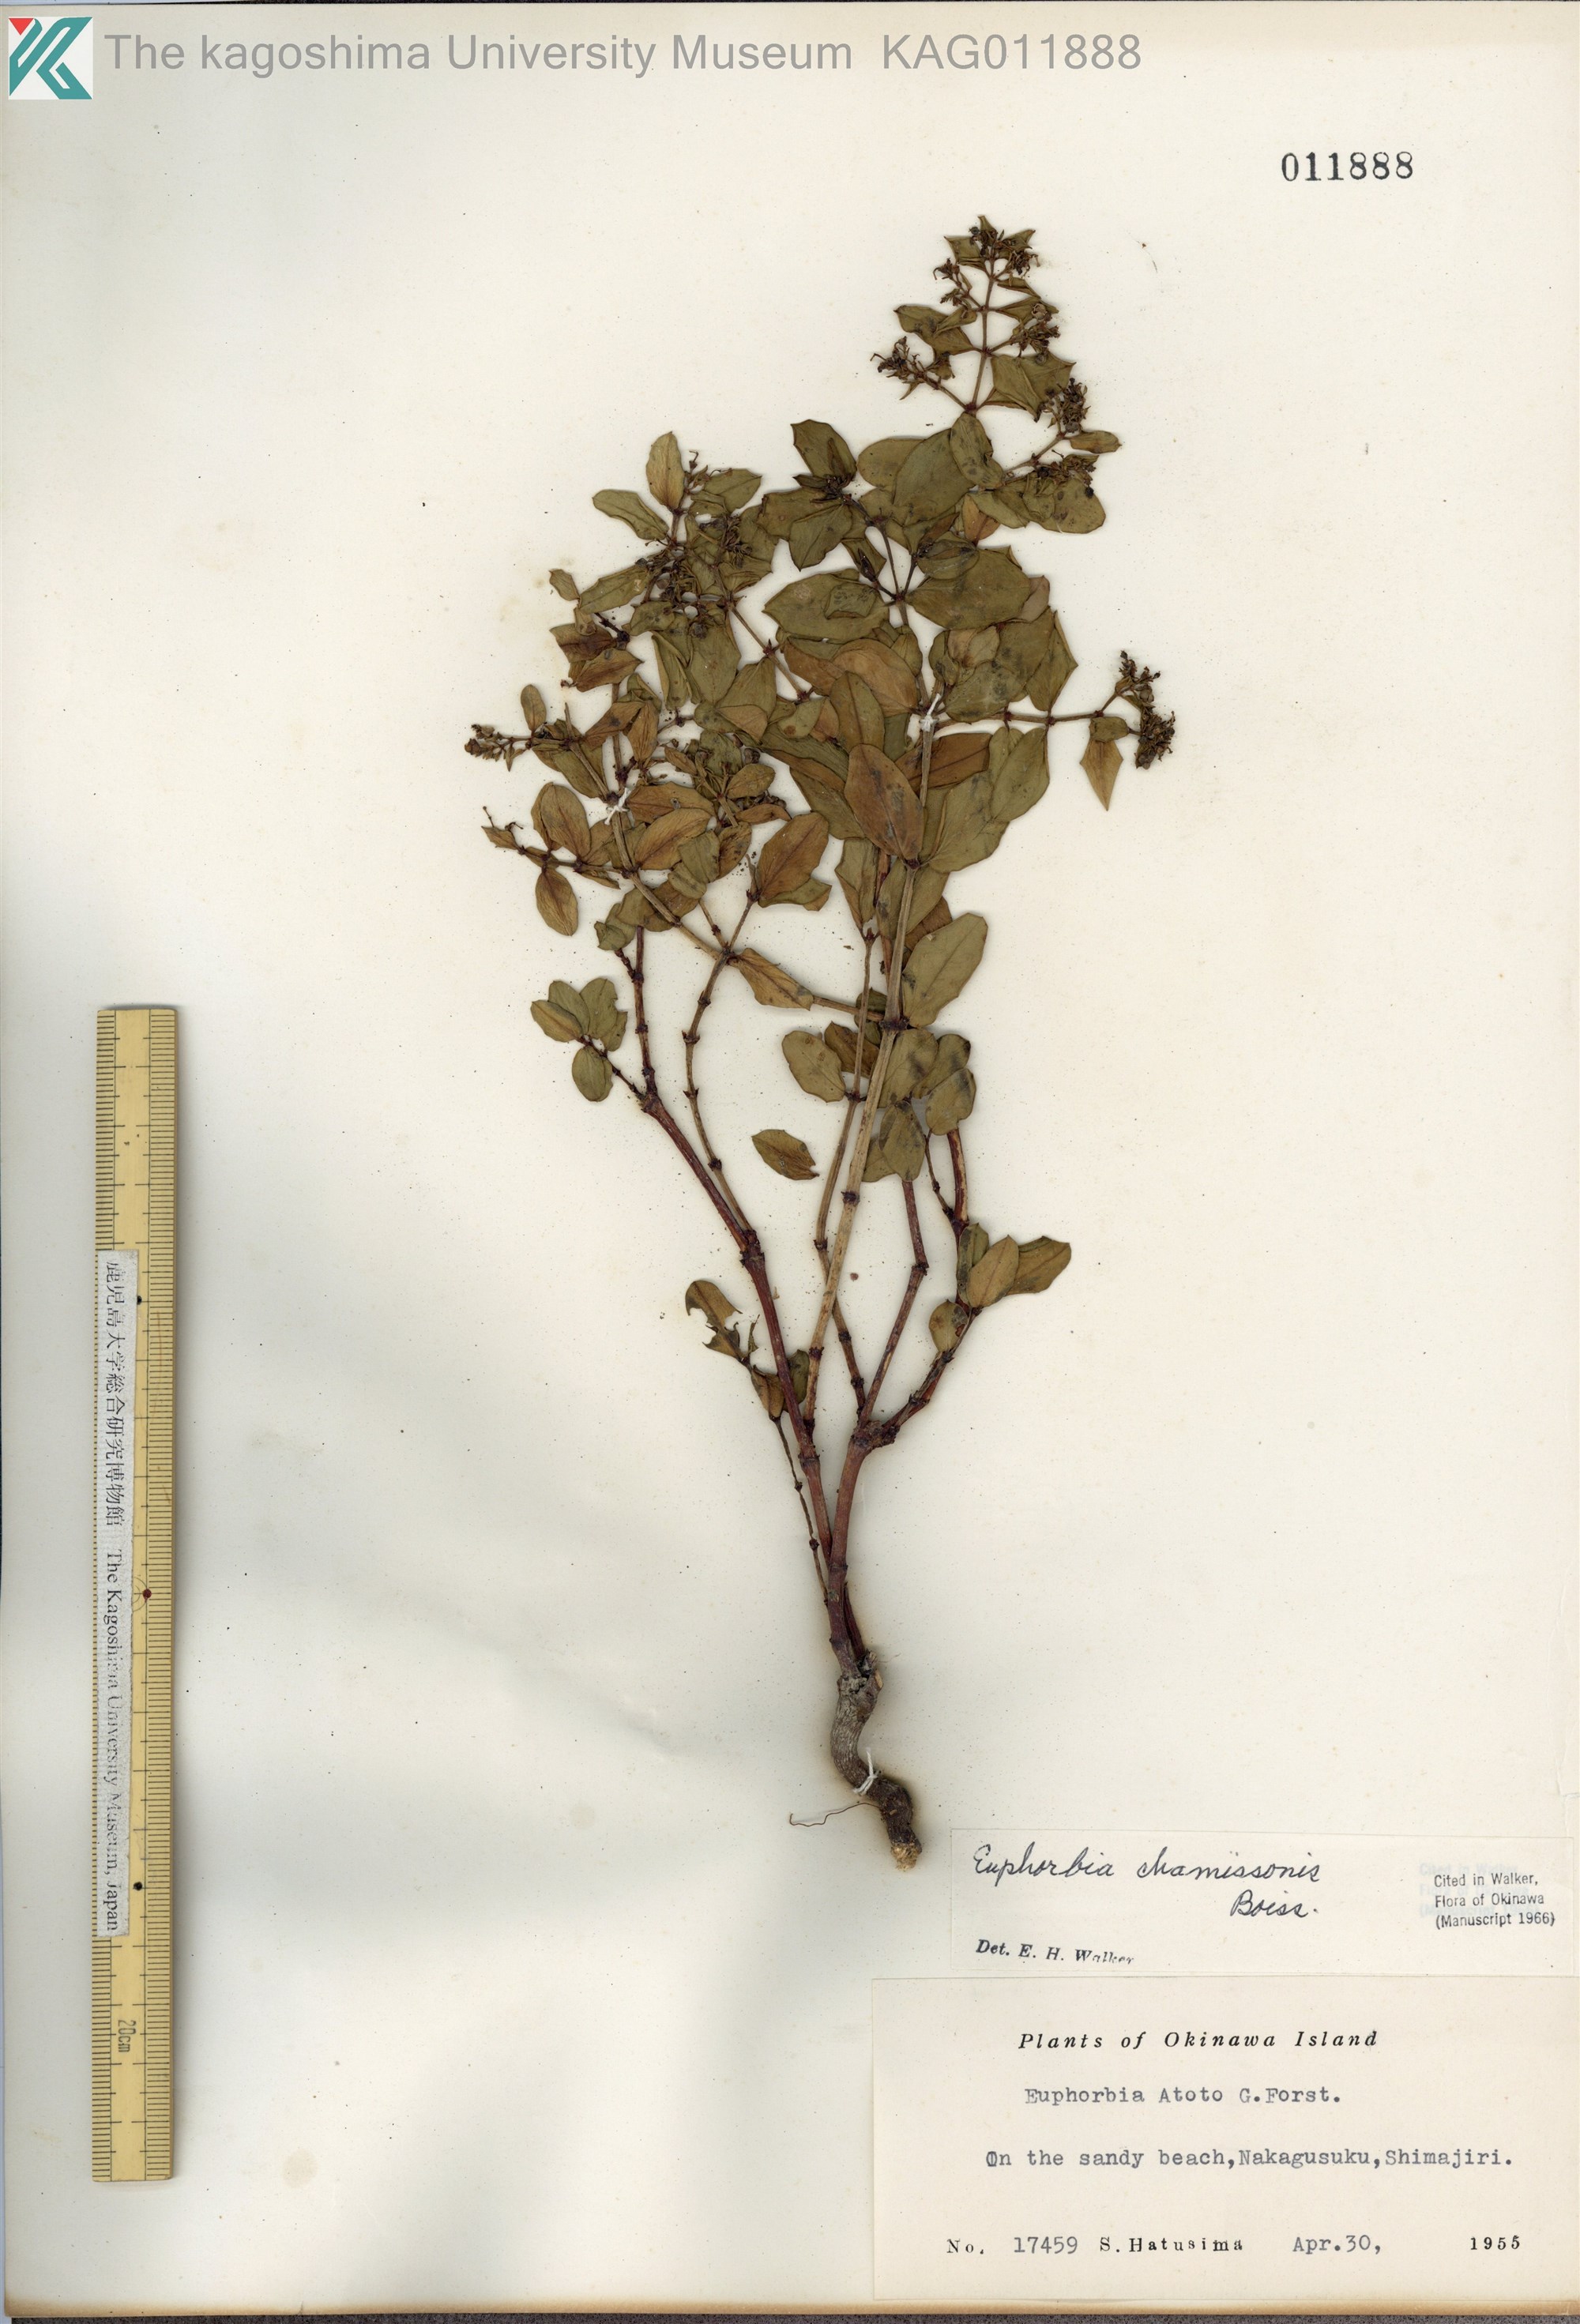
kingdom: Plantae
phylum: Tracheophyta
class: Magnoliopsida
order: Malpighiales
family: Euphorbiaceae
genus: Euphorbia
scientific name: Euphorbia chamissonis
